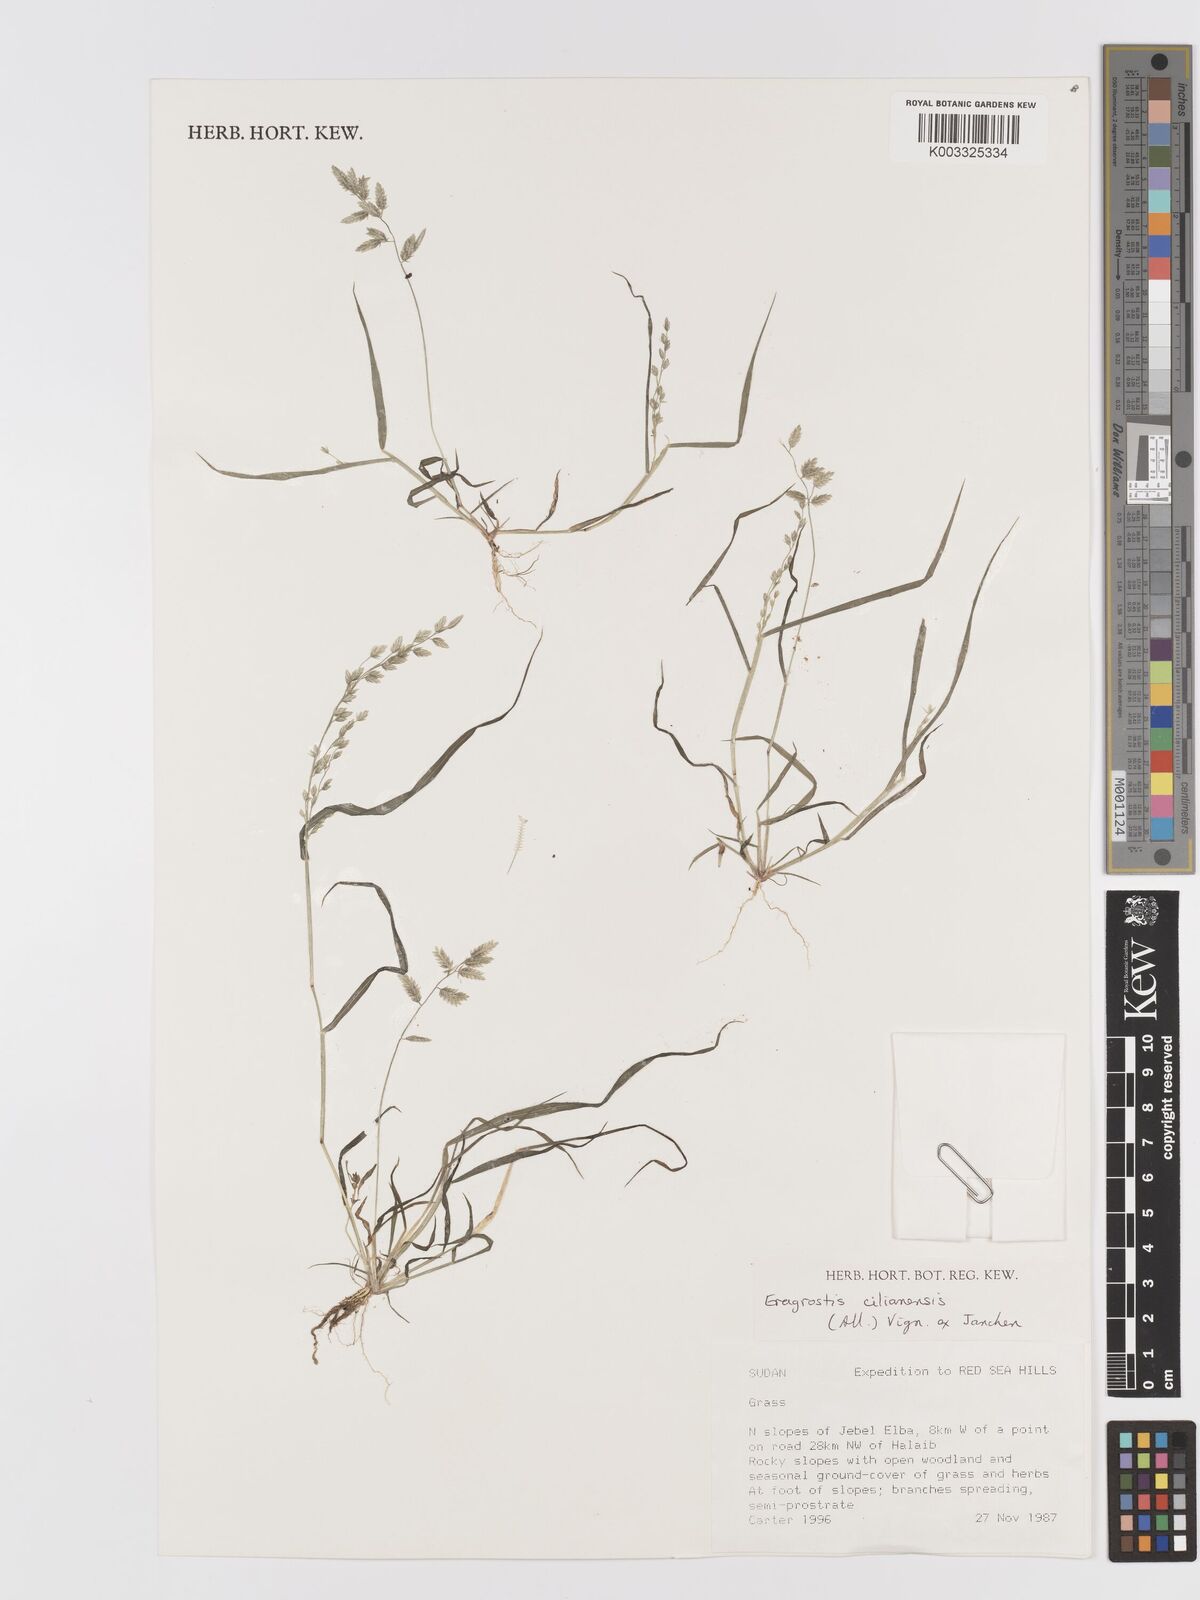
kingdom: Plantae
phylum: Tracheophyta
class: Liliopsida
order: Poales
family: Poaceae
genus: Eragrostis
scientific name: Eragrostis cilianensis
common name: Stinkgrass
